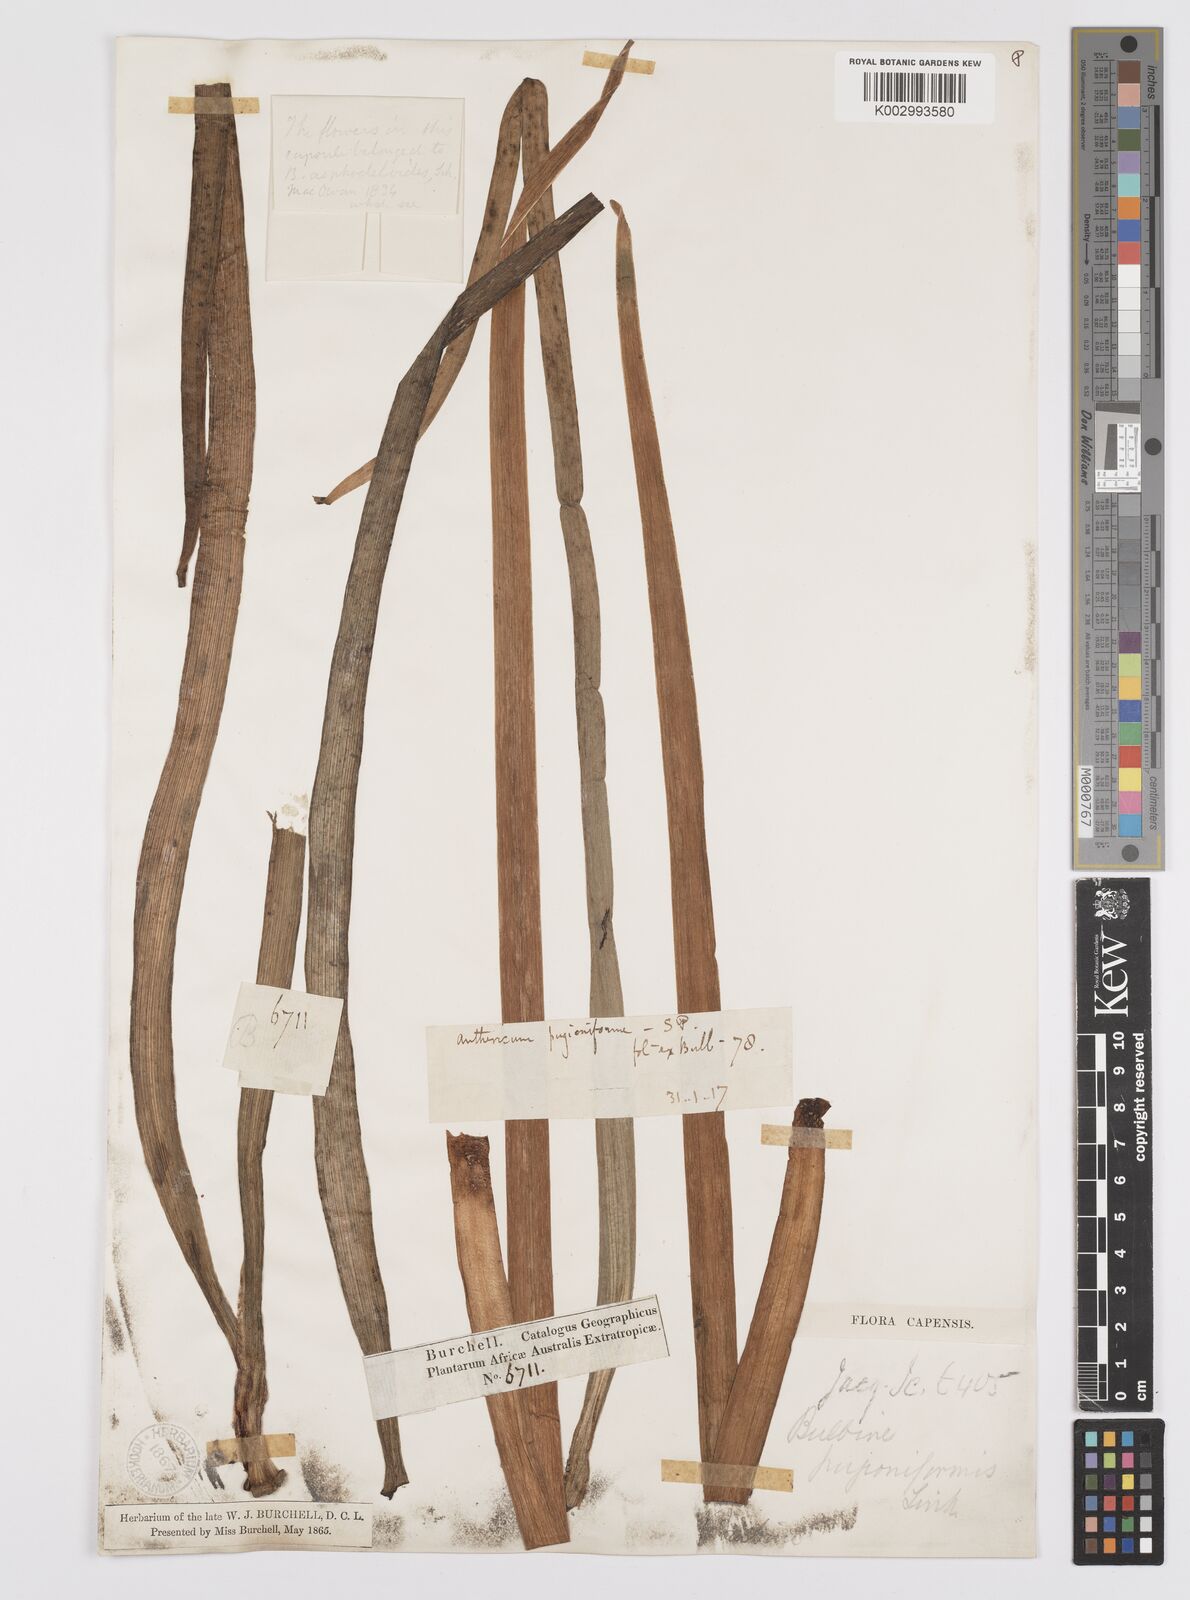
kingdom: Plantae
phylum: Tracheophyta
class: Liliopsida
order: Asparagales
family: Asphodelaceae
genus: Bulbine
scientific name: Bulbine cepacea
